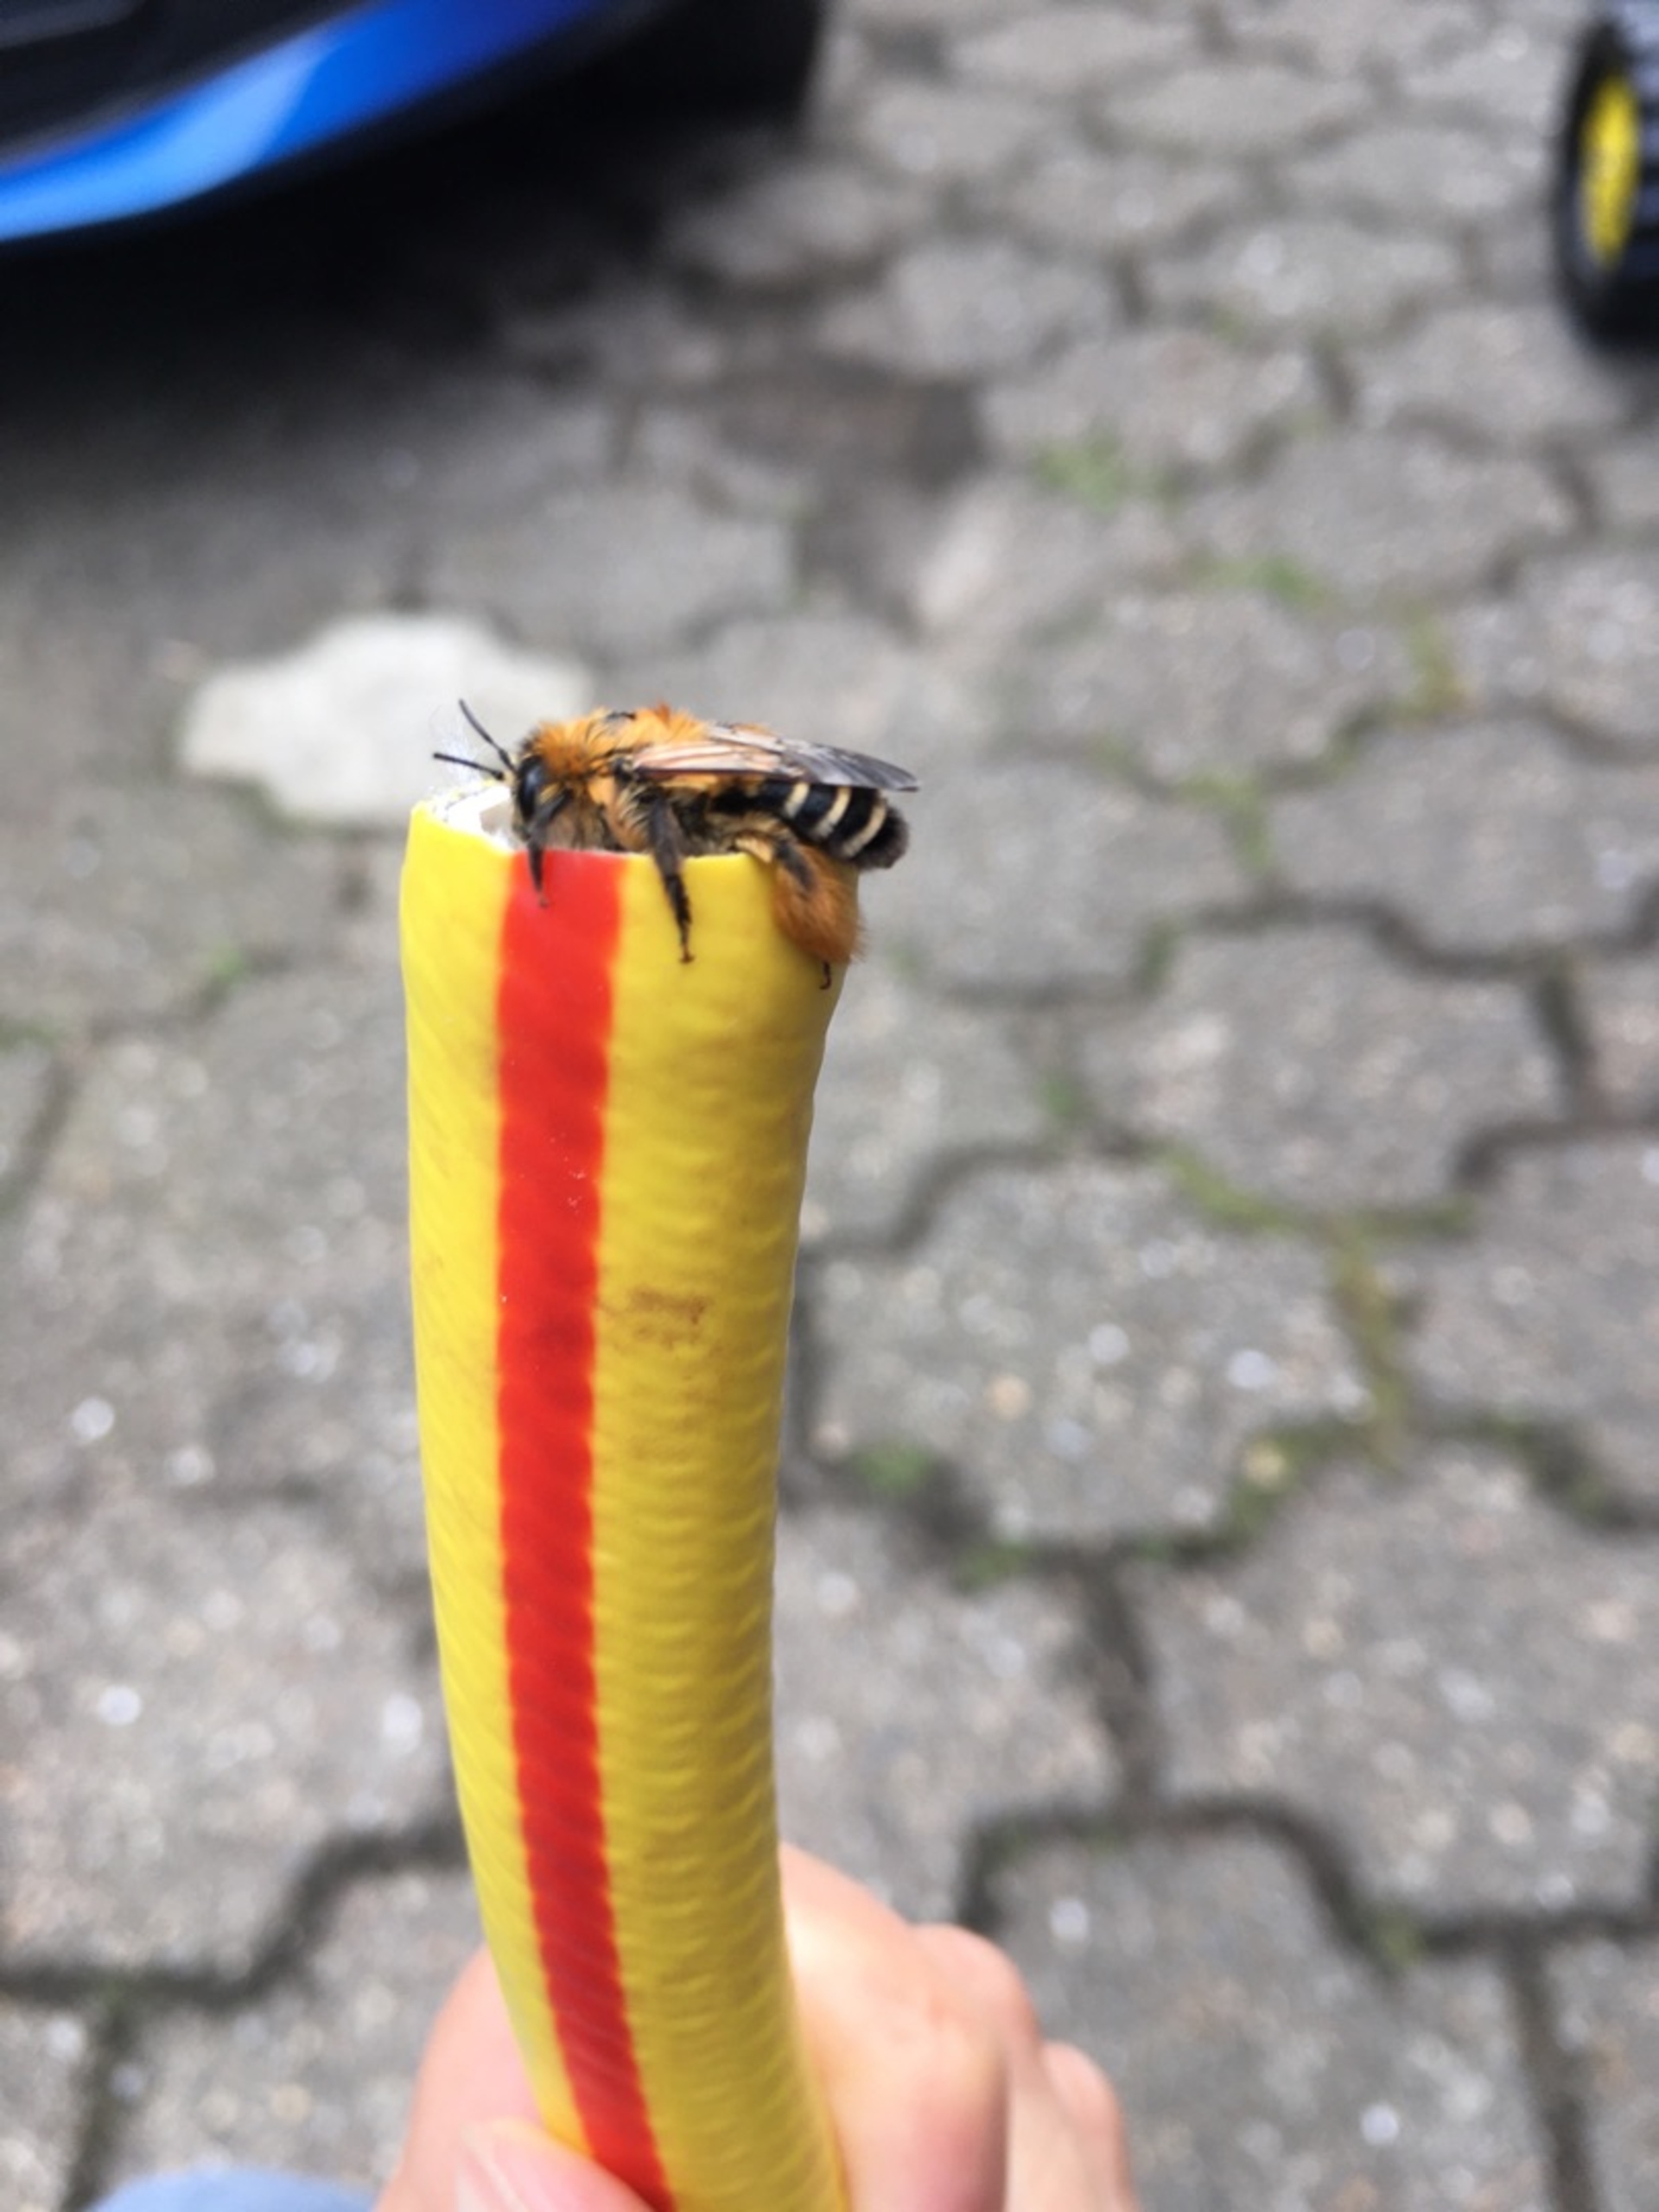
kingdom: Animalia
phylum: Arthropoda
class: Insecta
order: Hymenoptera
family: Melittidae
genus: Dasypoda
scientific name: Dasypoda hirtipes
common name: Pragtbuksebi
